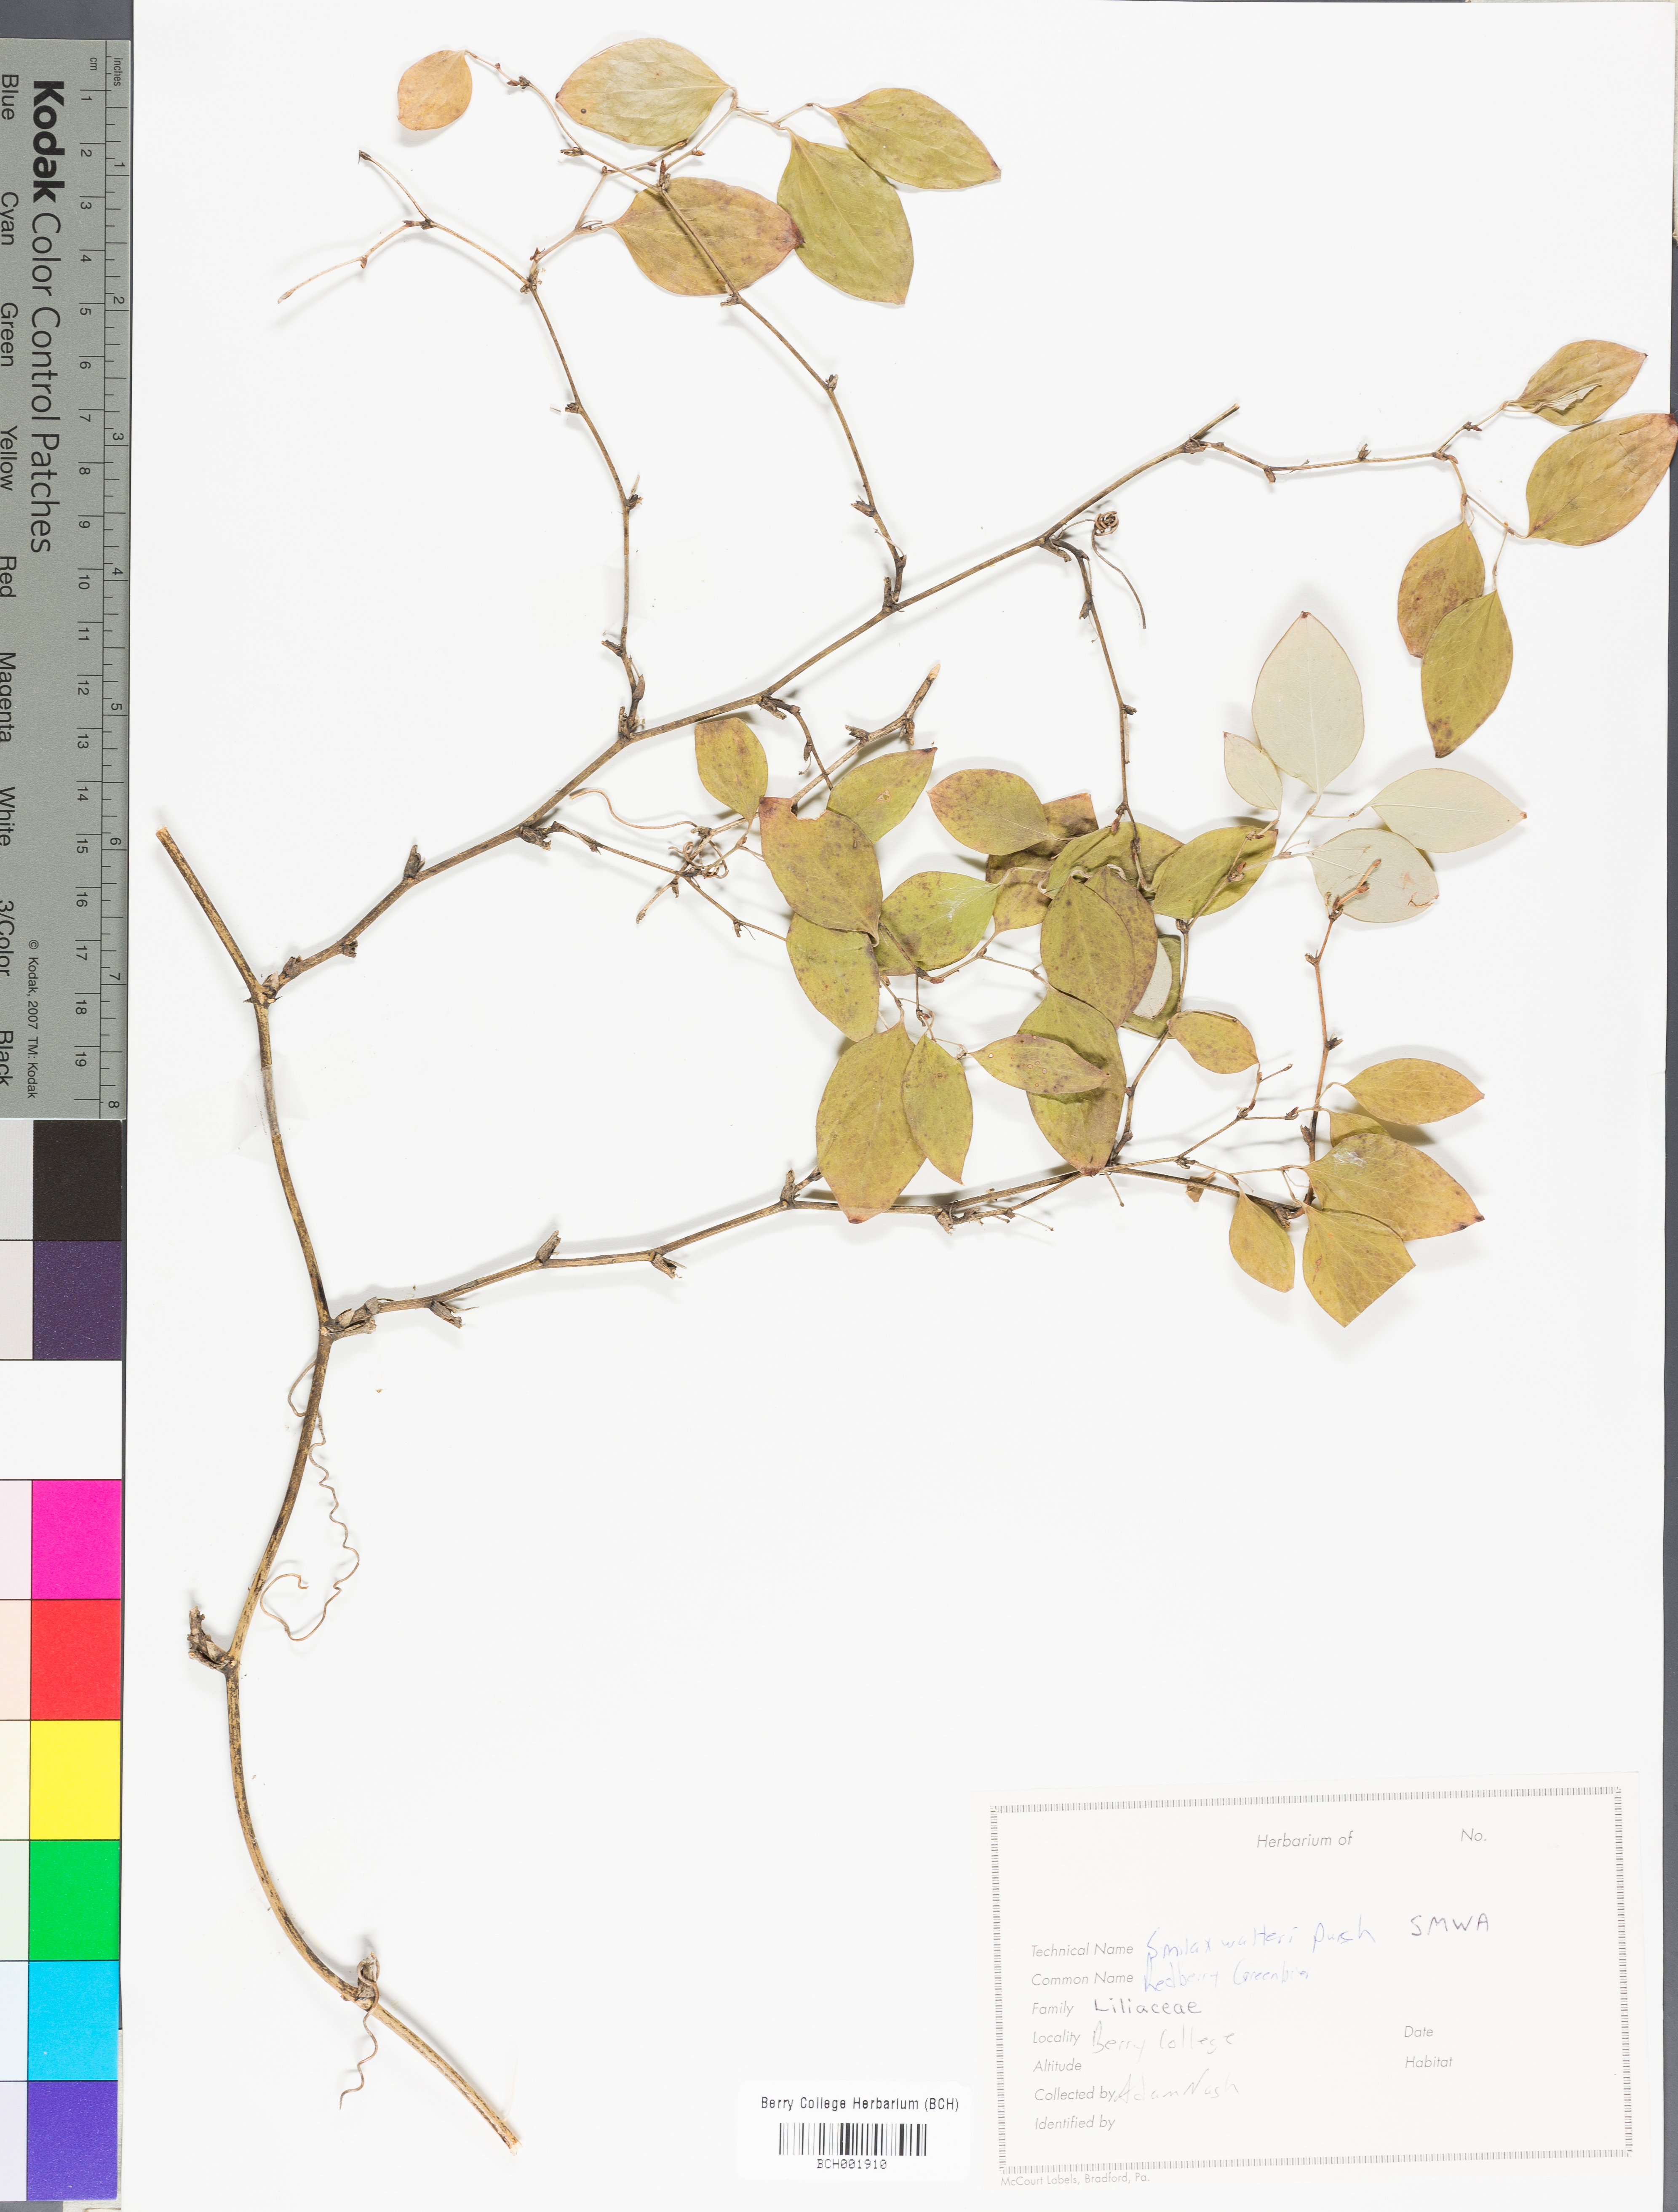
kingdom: Plantae
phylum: Tracheophyta
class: Liliopsida
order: Liliales
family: Smilacaceae
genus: Smilax
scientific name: Smilax walteri
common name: Coral greenbrier
